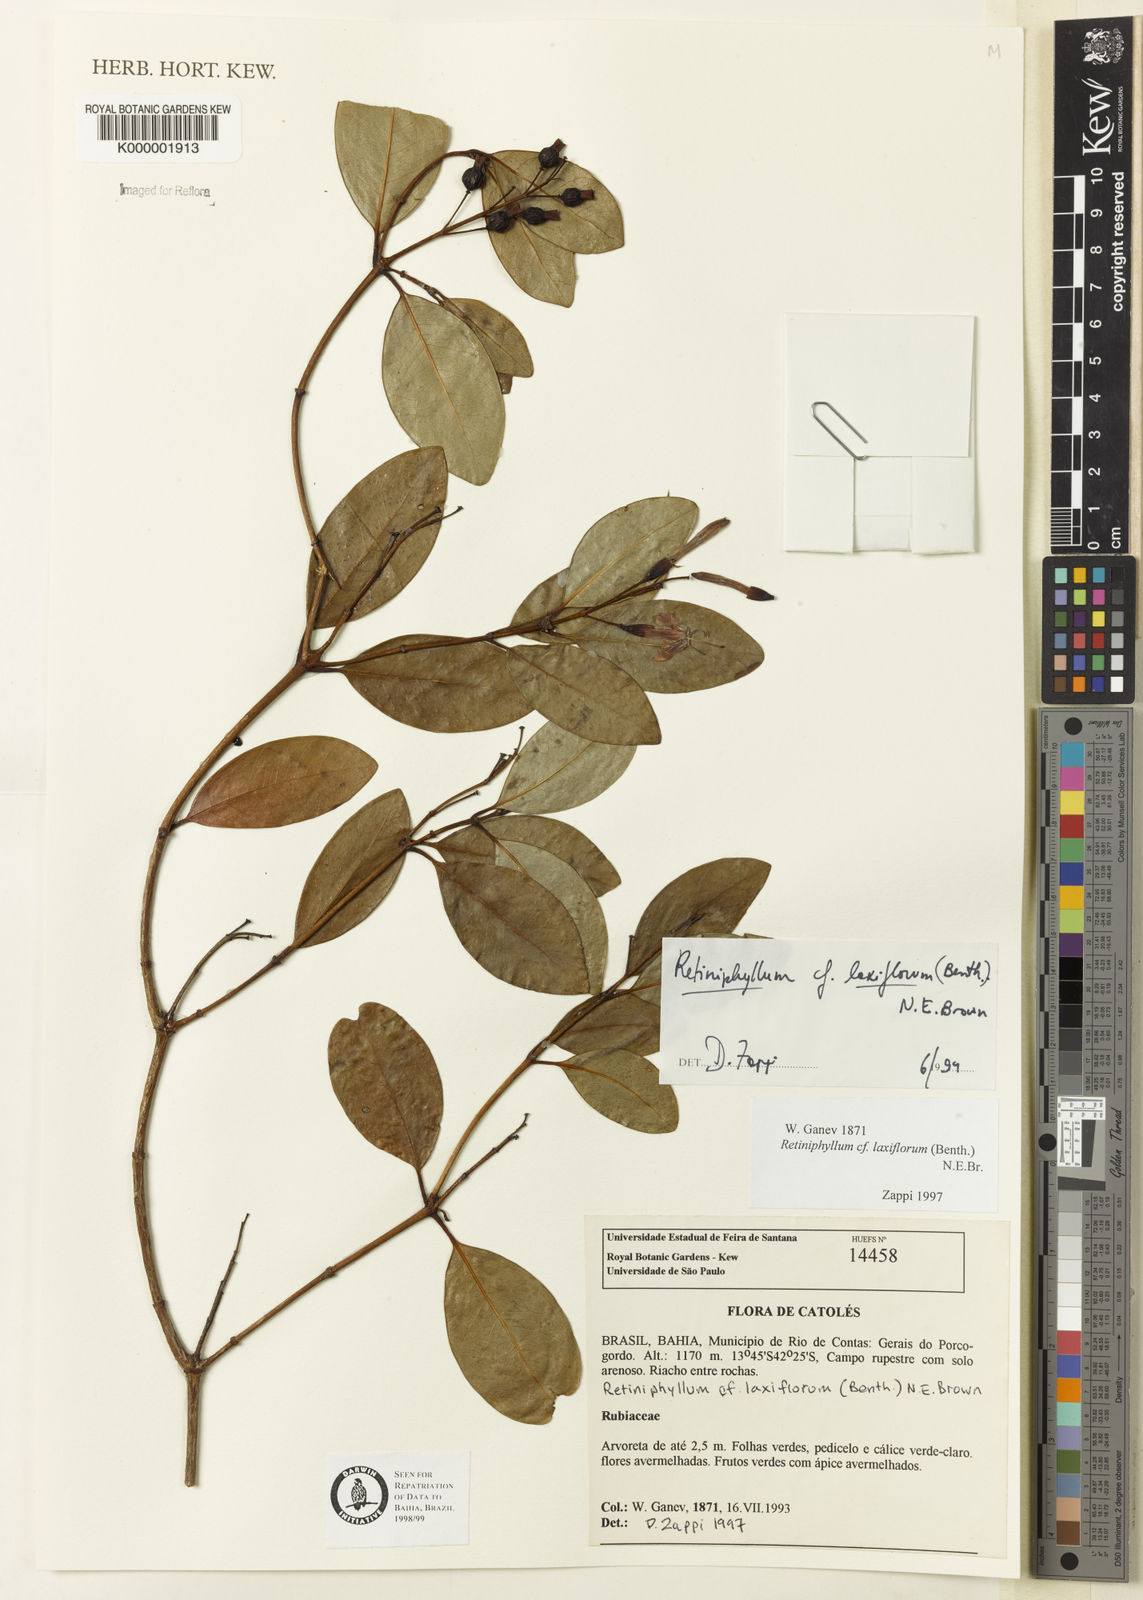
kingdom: Plantae
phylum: Tracheophyta
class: Magnoliopsida
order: Gentianales
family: Rubiaceae
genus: Retiniphyllum
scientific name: Retiniphyllum laxiflorum
